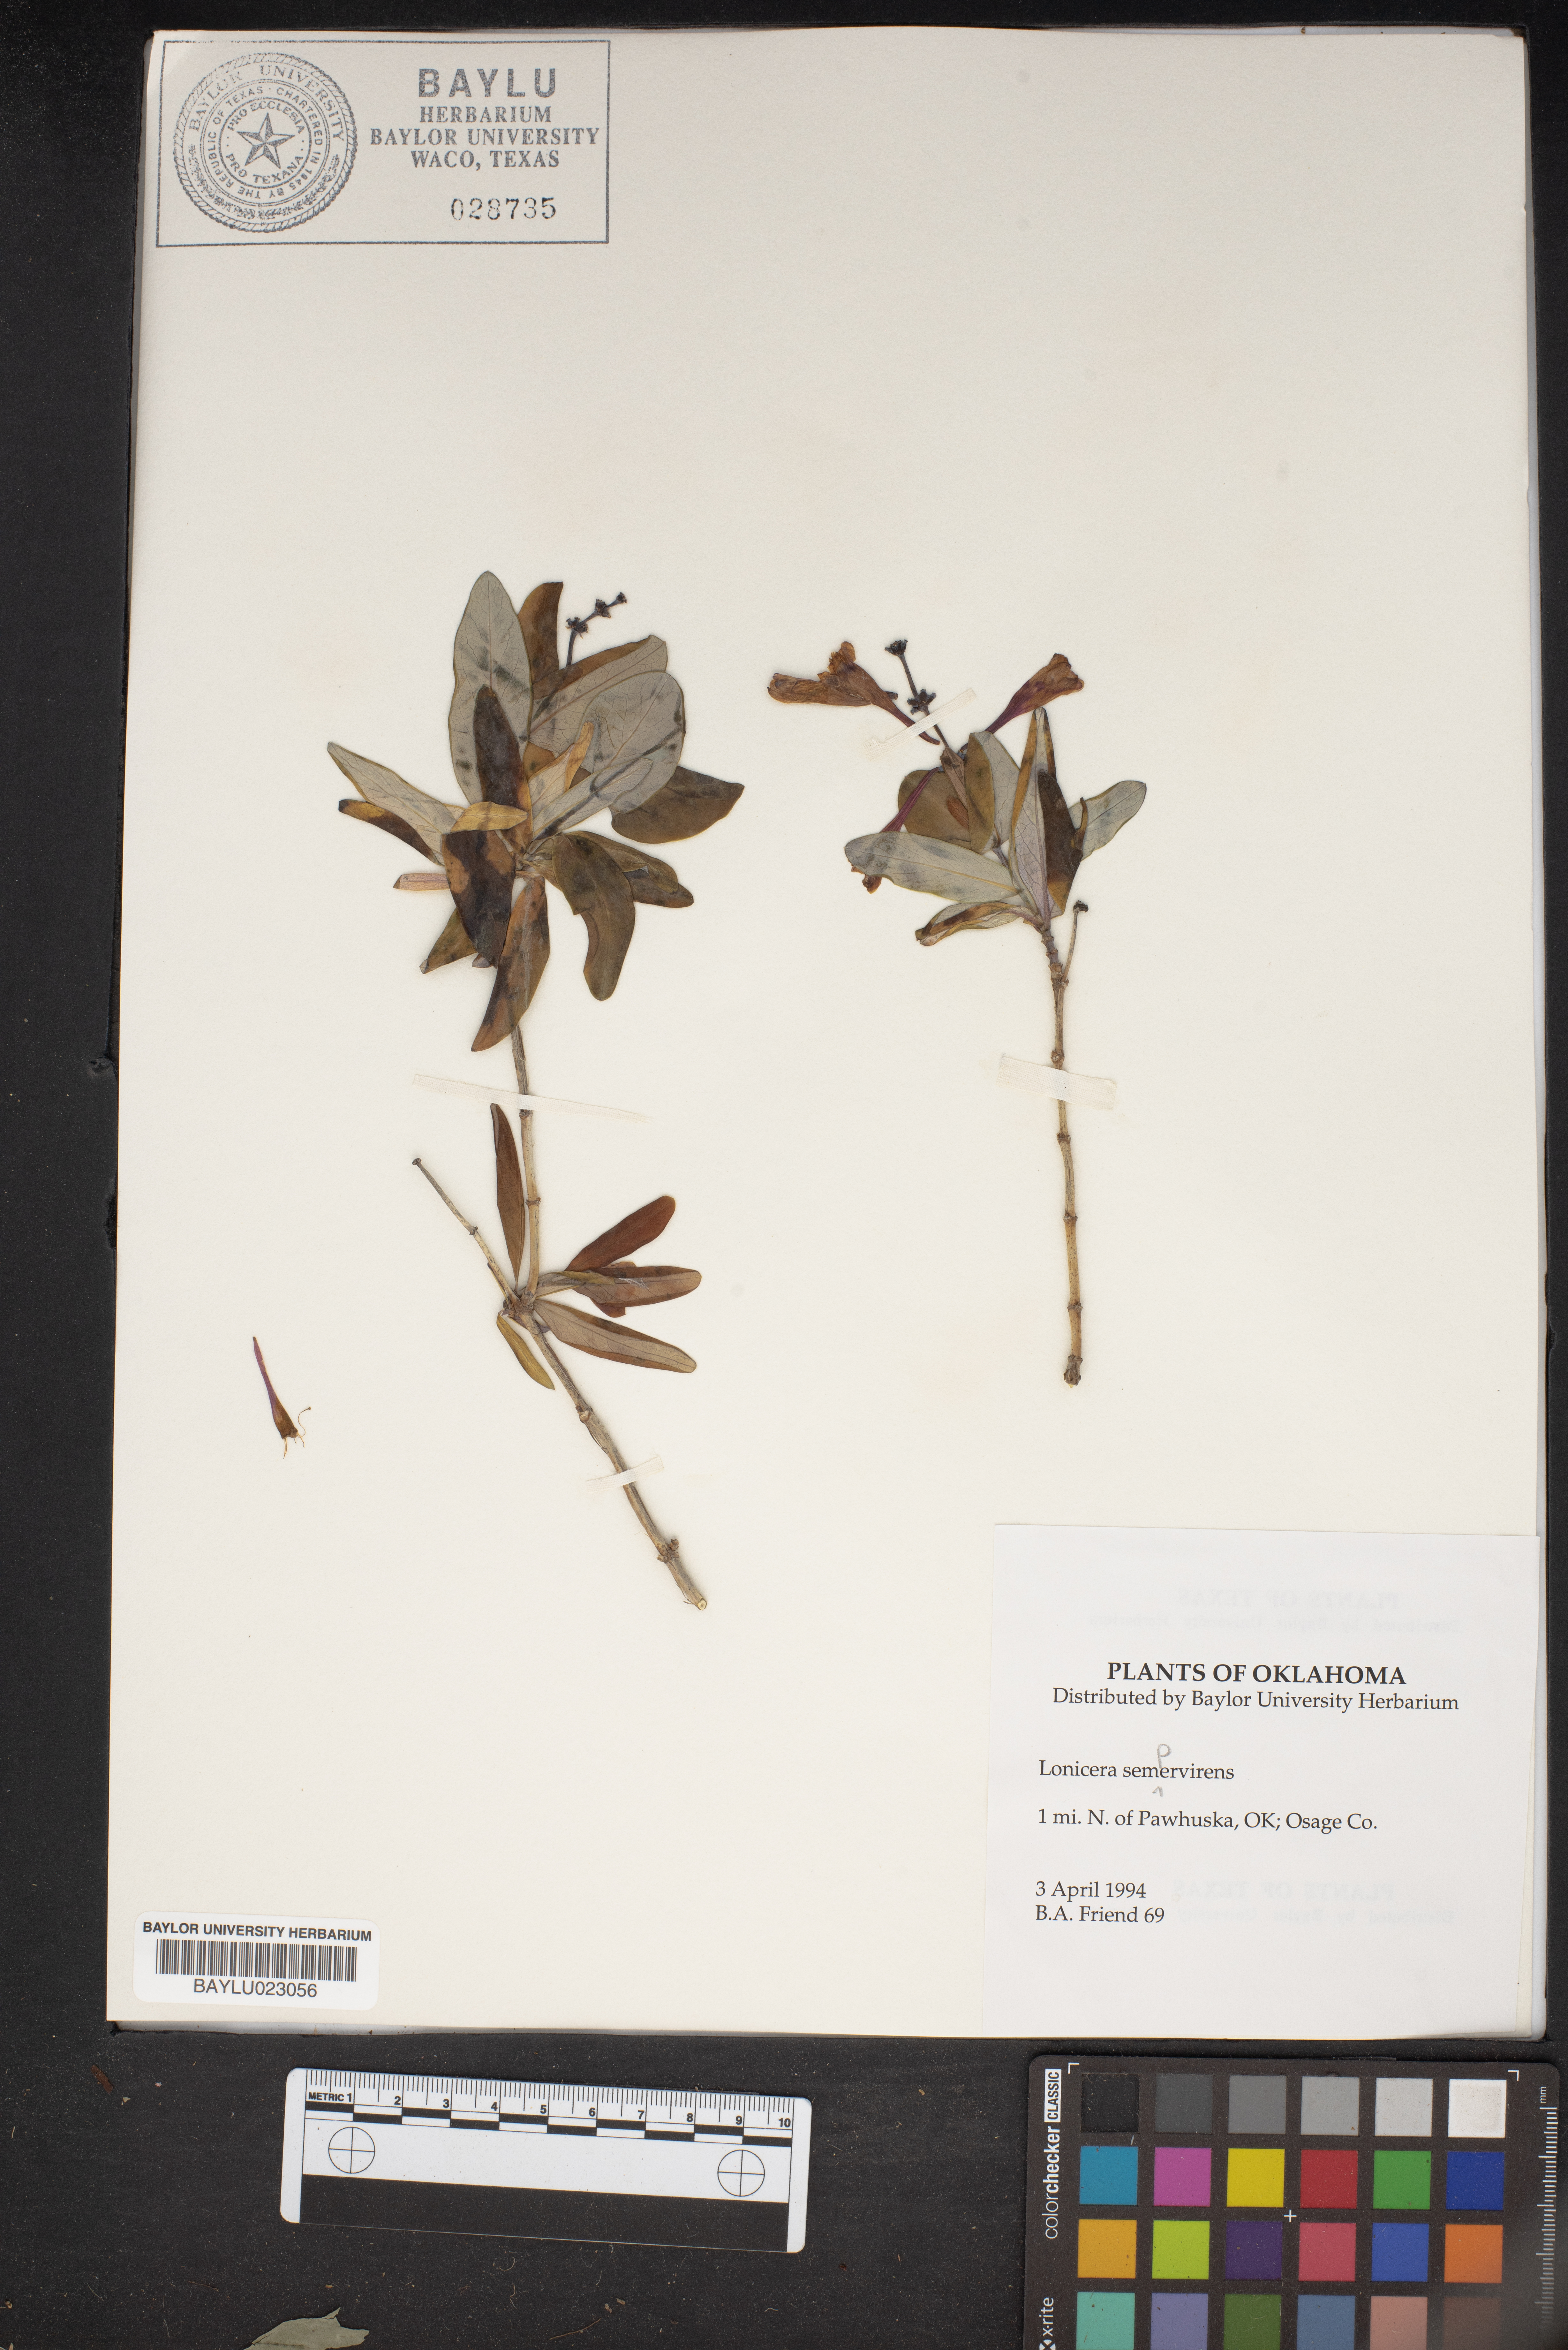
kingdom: Plantae
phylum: Tracheophyta
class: Magnoliopsida
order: Dipsacales
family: Caprifoliaceae
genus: Lonicera
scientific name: Lonicera sempervirens
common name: Coral honeysuckle
